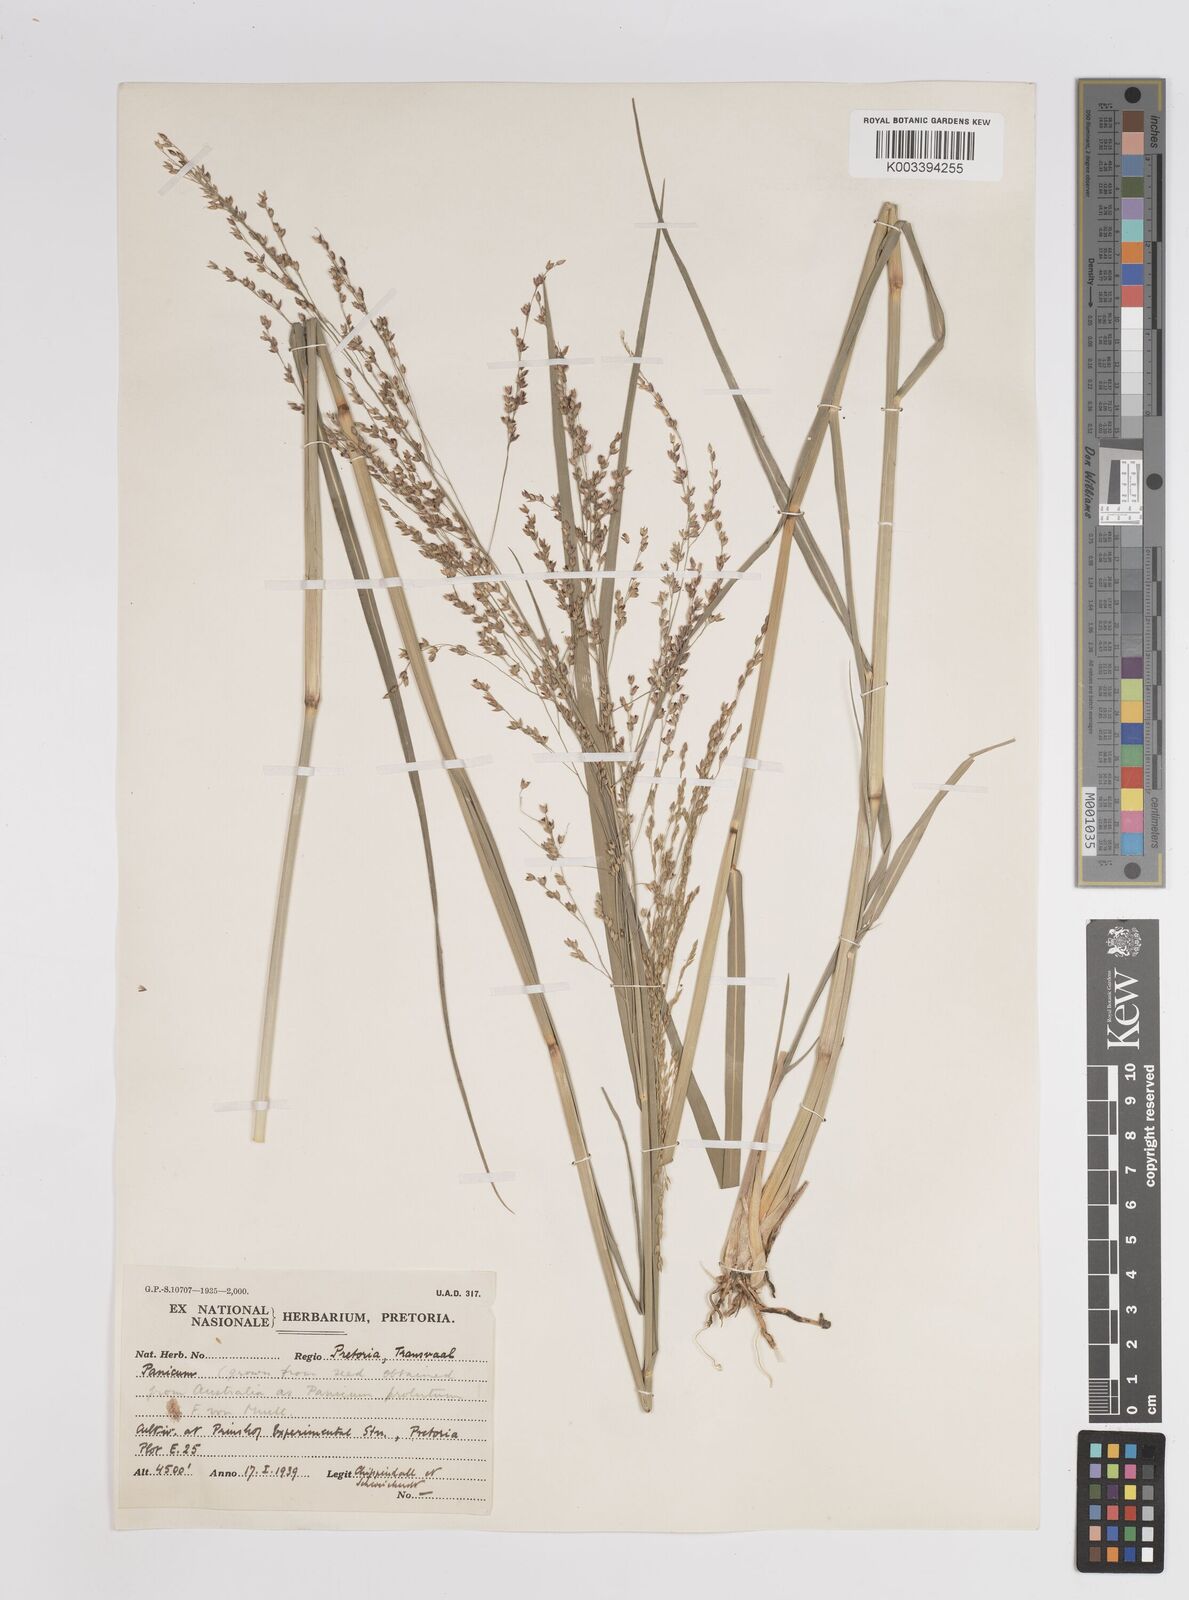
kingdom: Plantae
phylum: Tracheophyta
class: Liliopsida
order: Poales
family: Poaceae
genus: Panicum
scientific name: Panicum subalbidum
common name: Elbow buffalo grass
